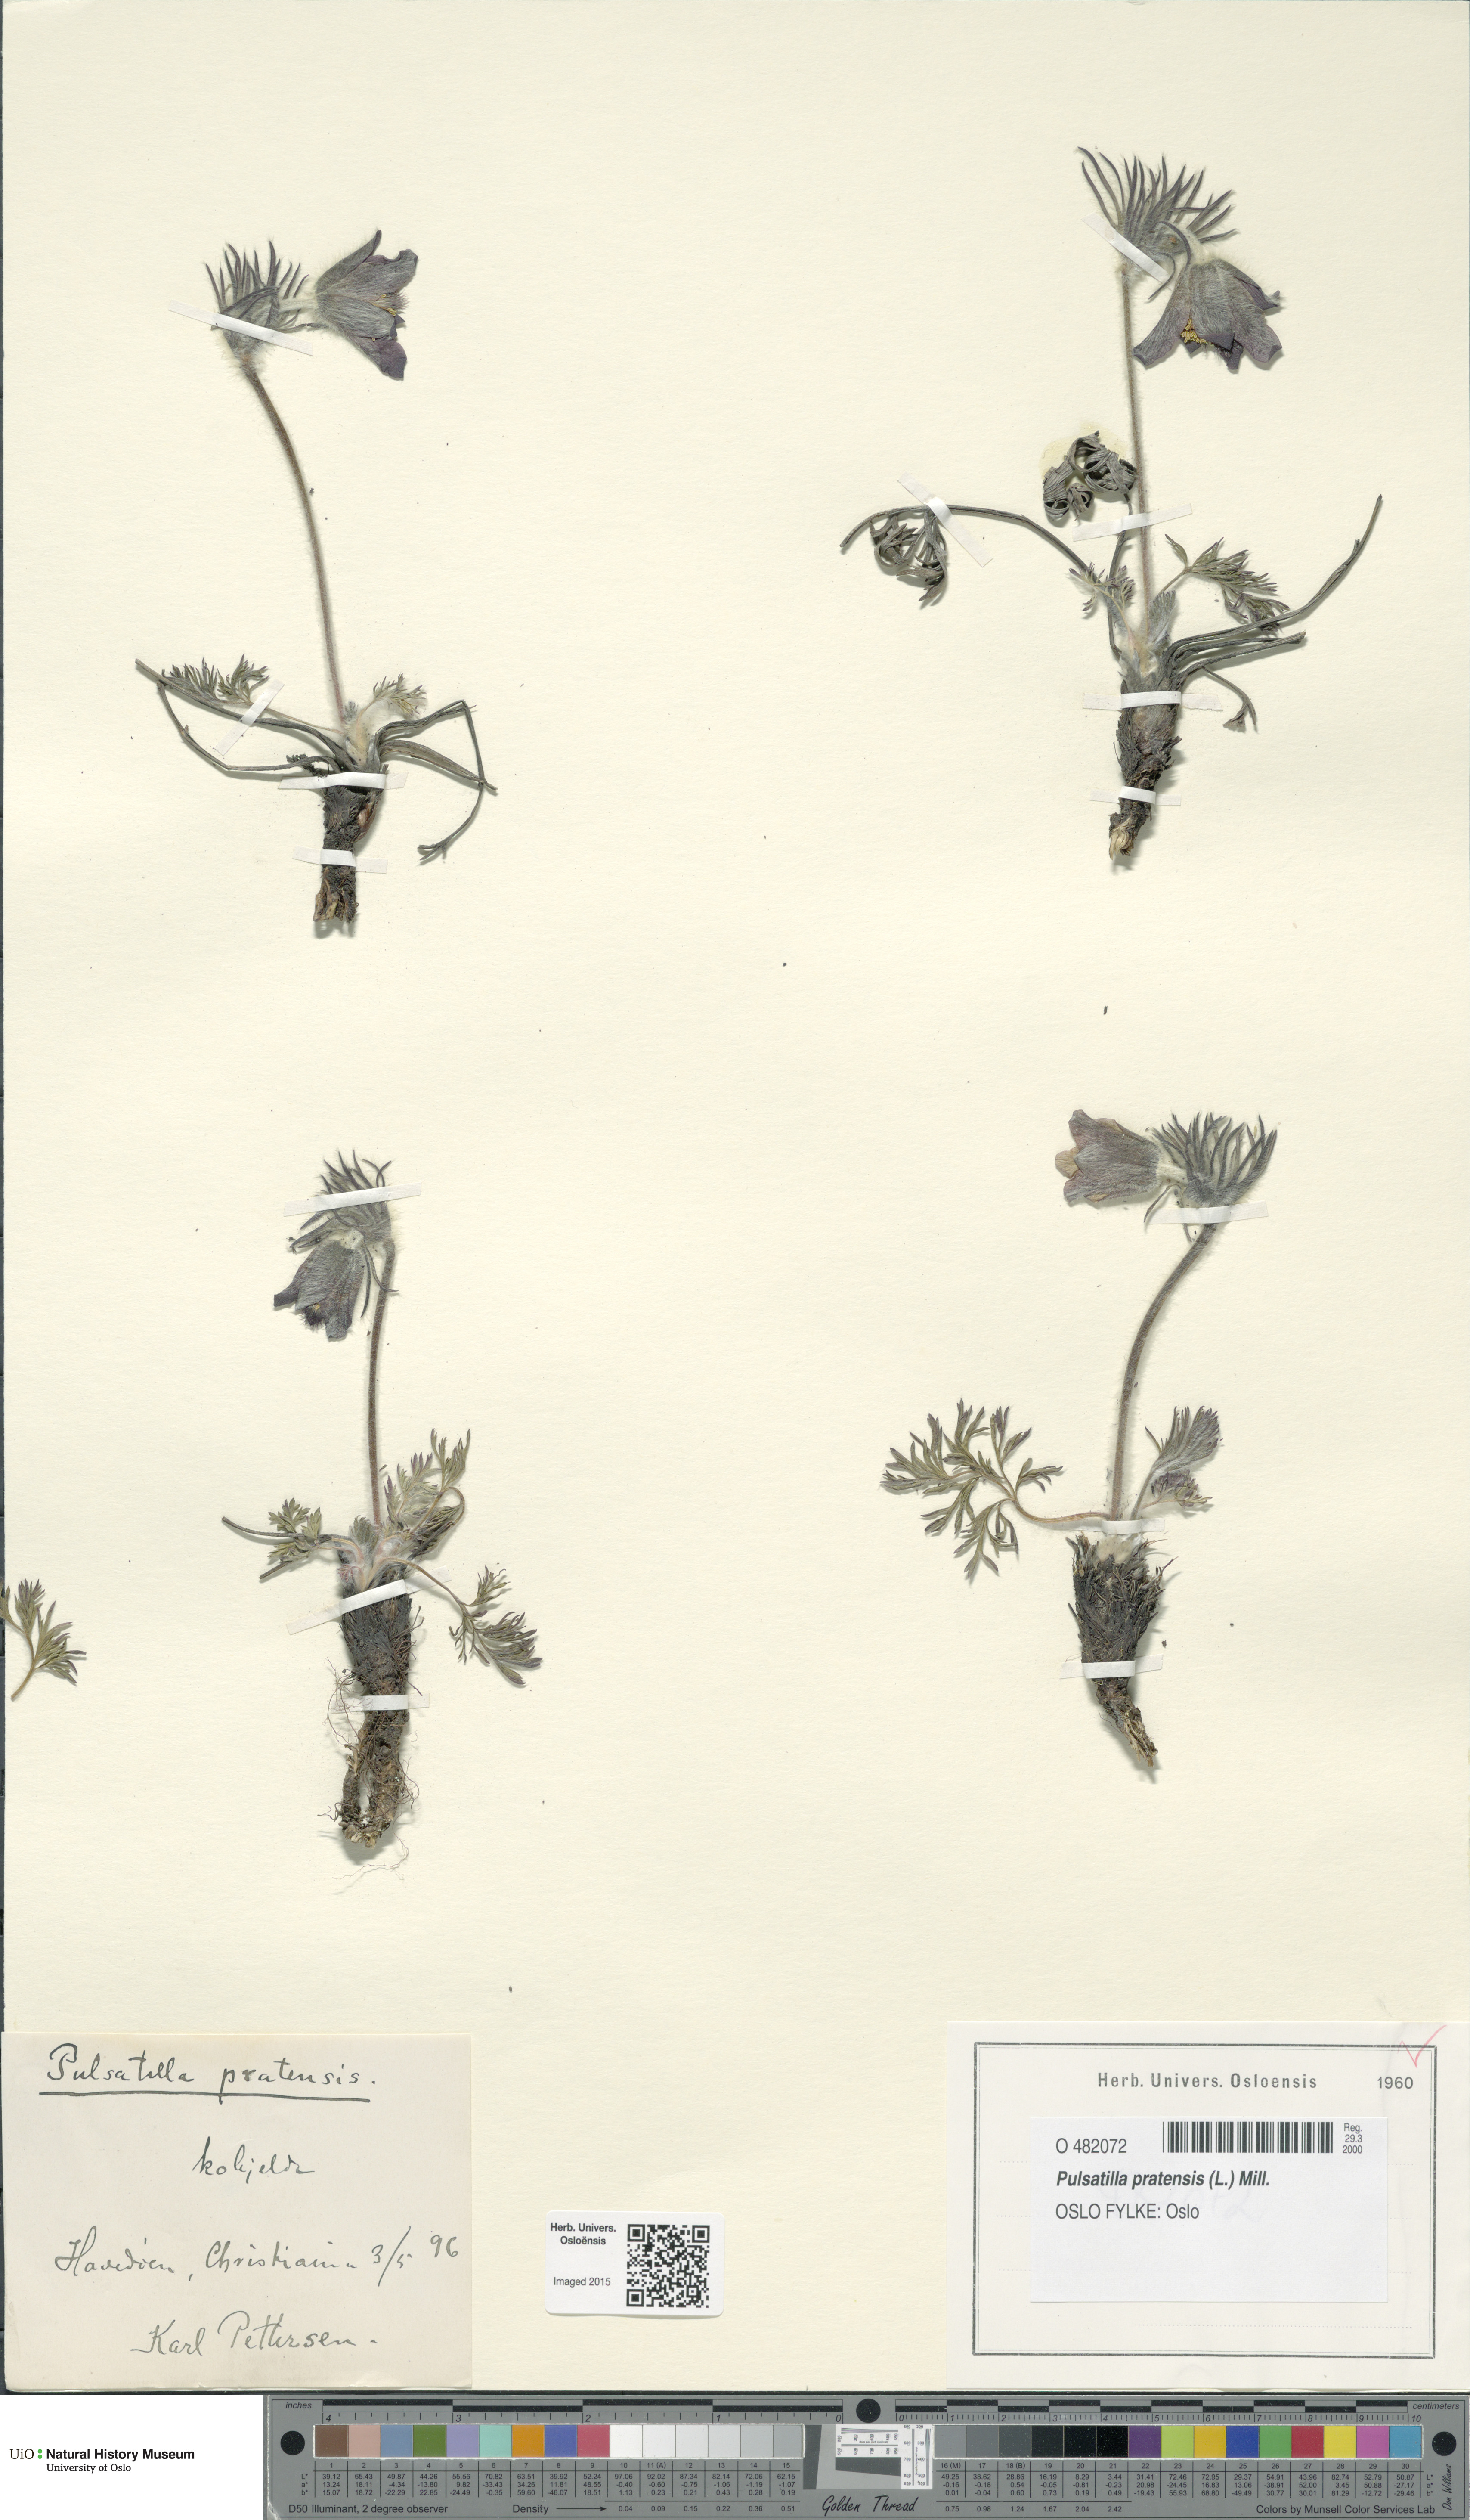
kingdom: Plantae
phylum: Tracheophyta
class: Magnoliopsida
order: Ranunculales
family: Ranunculaceae
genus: Pulsatilla
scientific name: Pulsatilla pratensis
